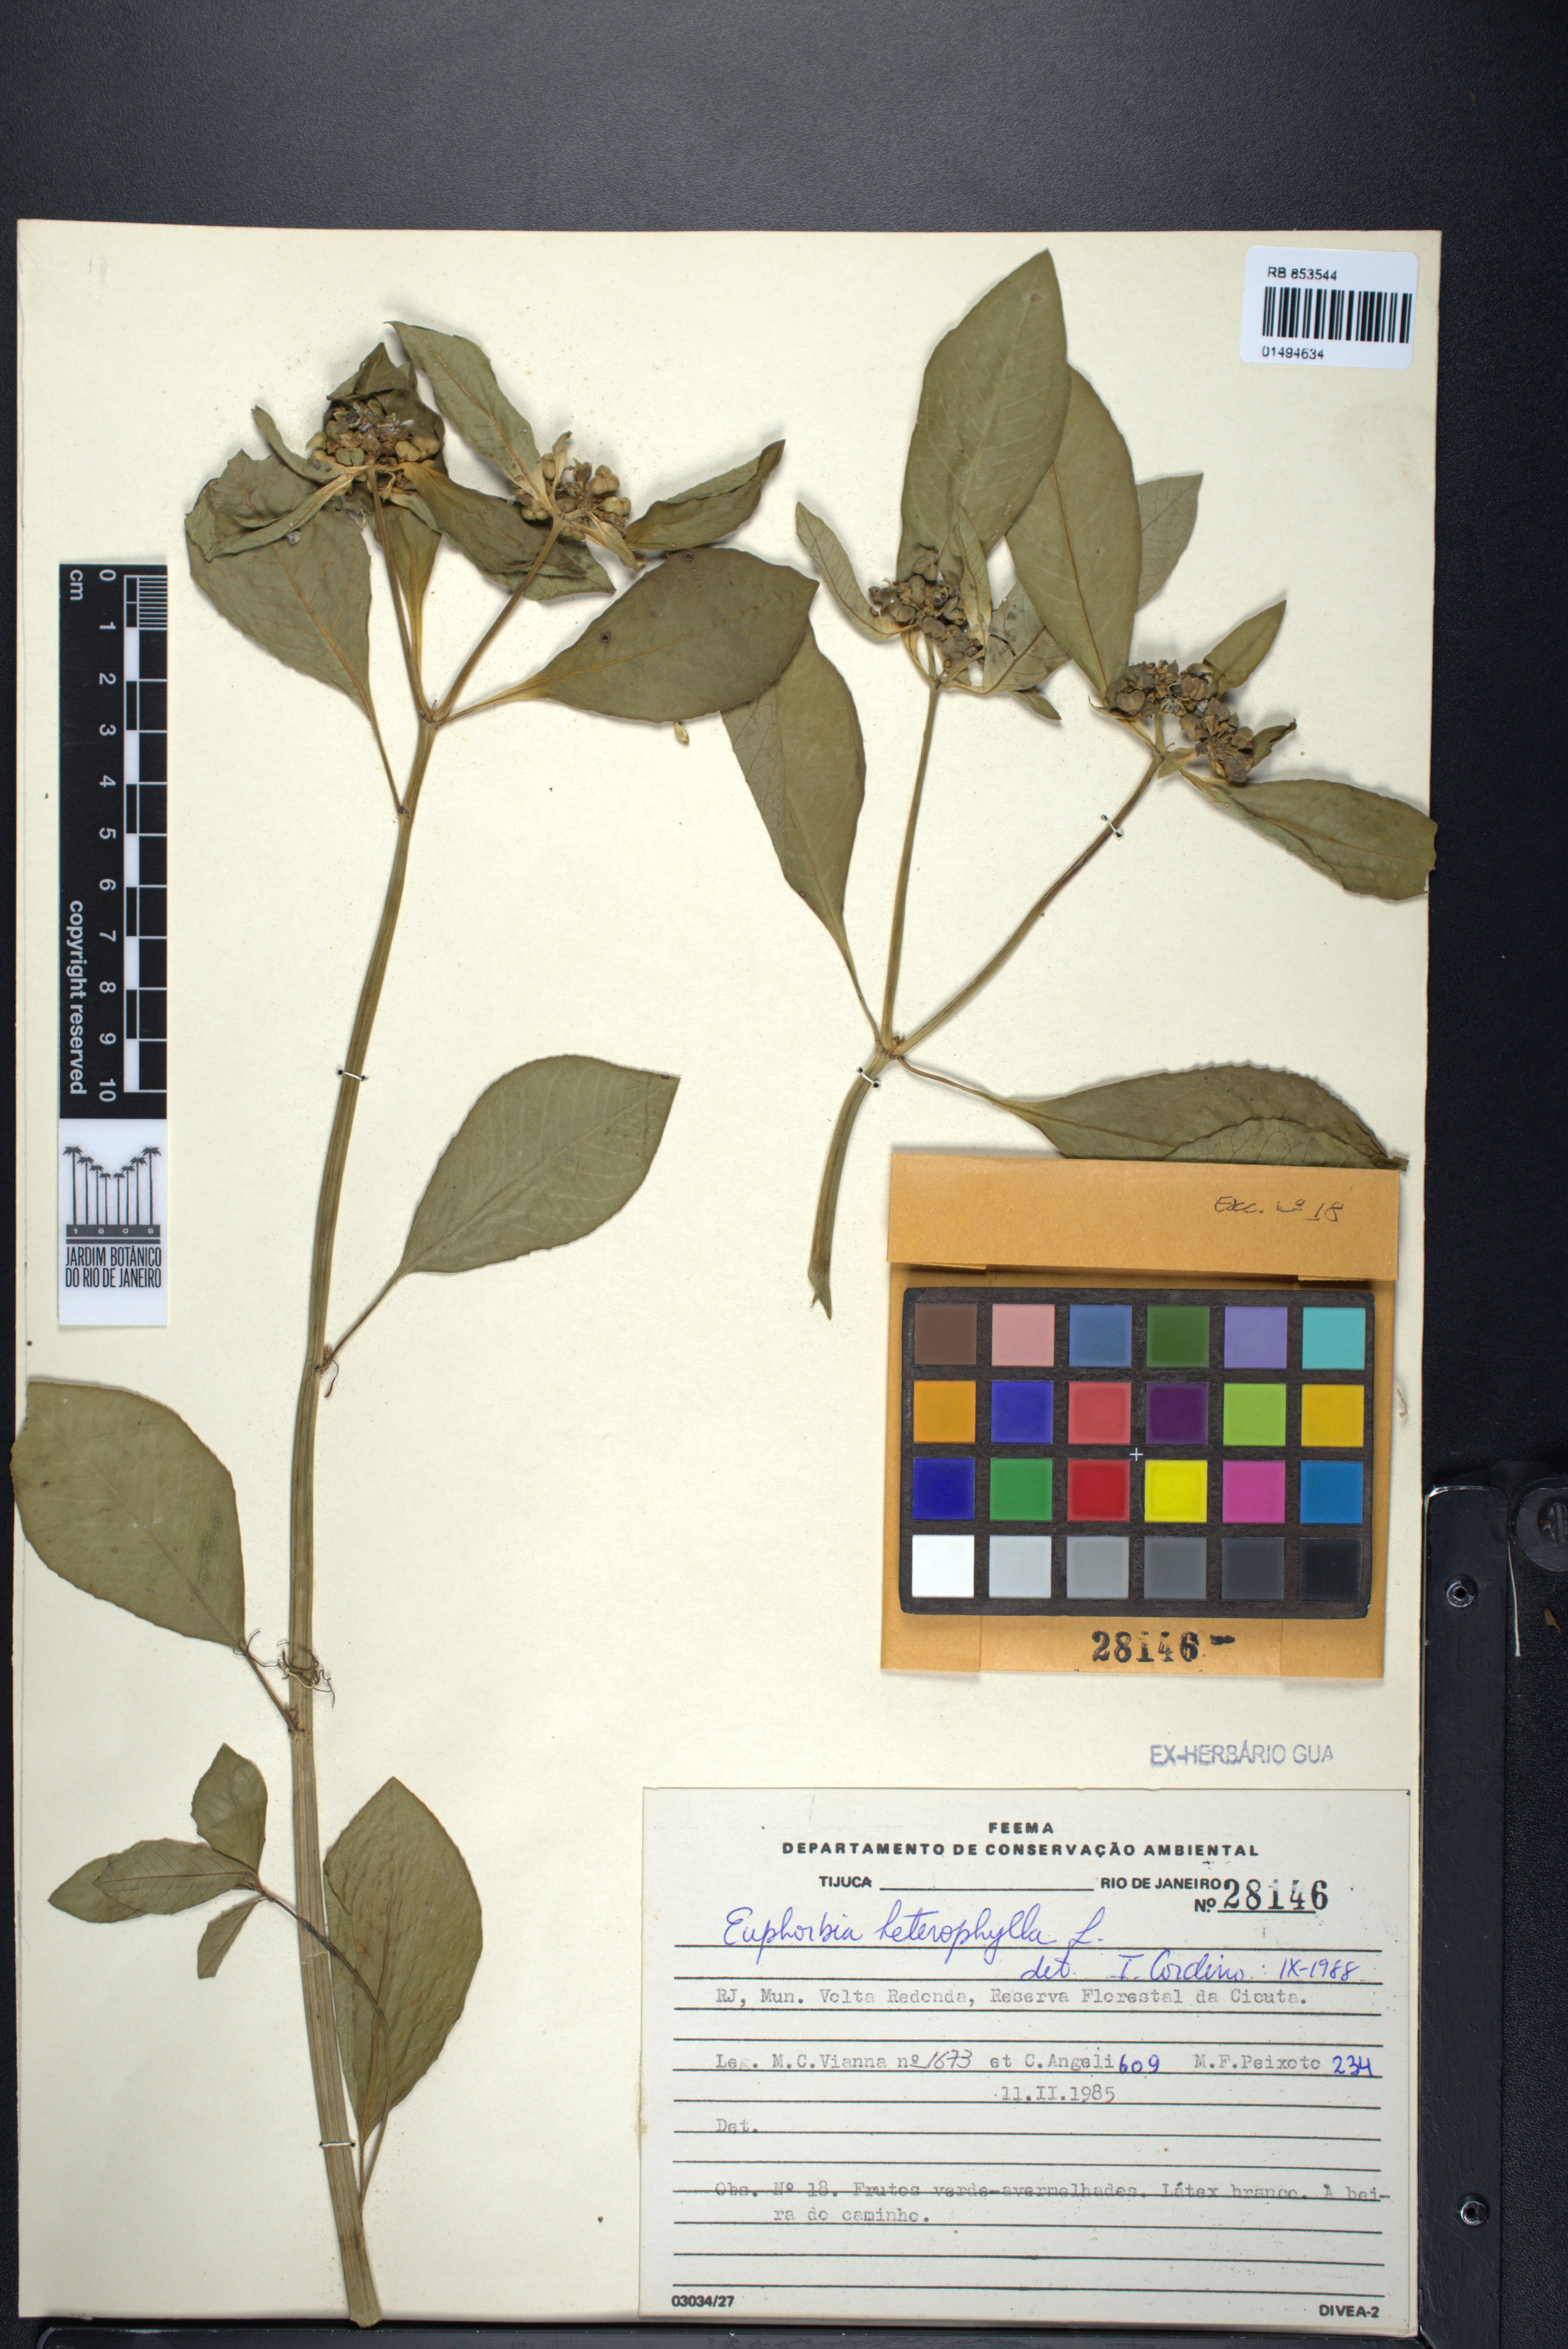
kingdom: Plantae
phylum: Tracheophyta
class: Magnoliopsida
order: Malpighiales
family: Euphorbiaceae
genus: Euphorbia
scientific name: Euphorbia heterophylla
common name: Mexican fireplant
